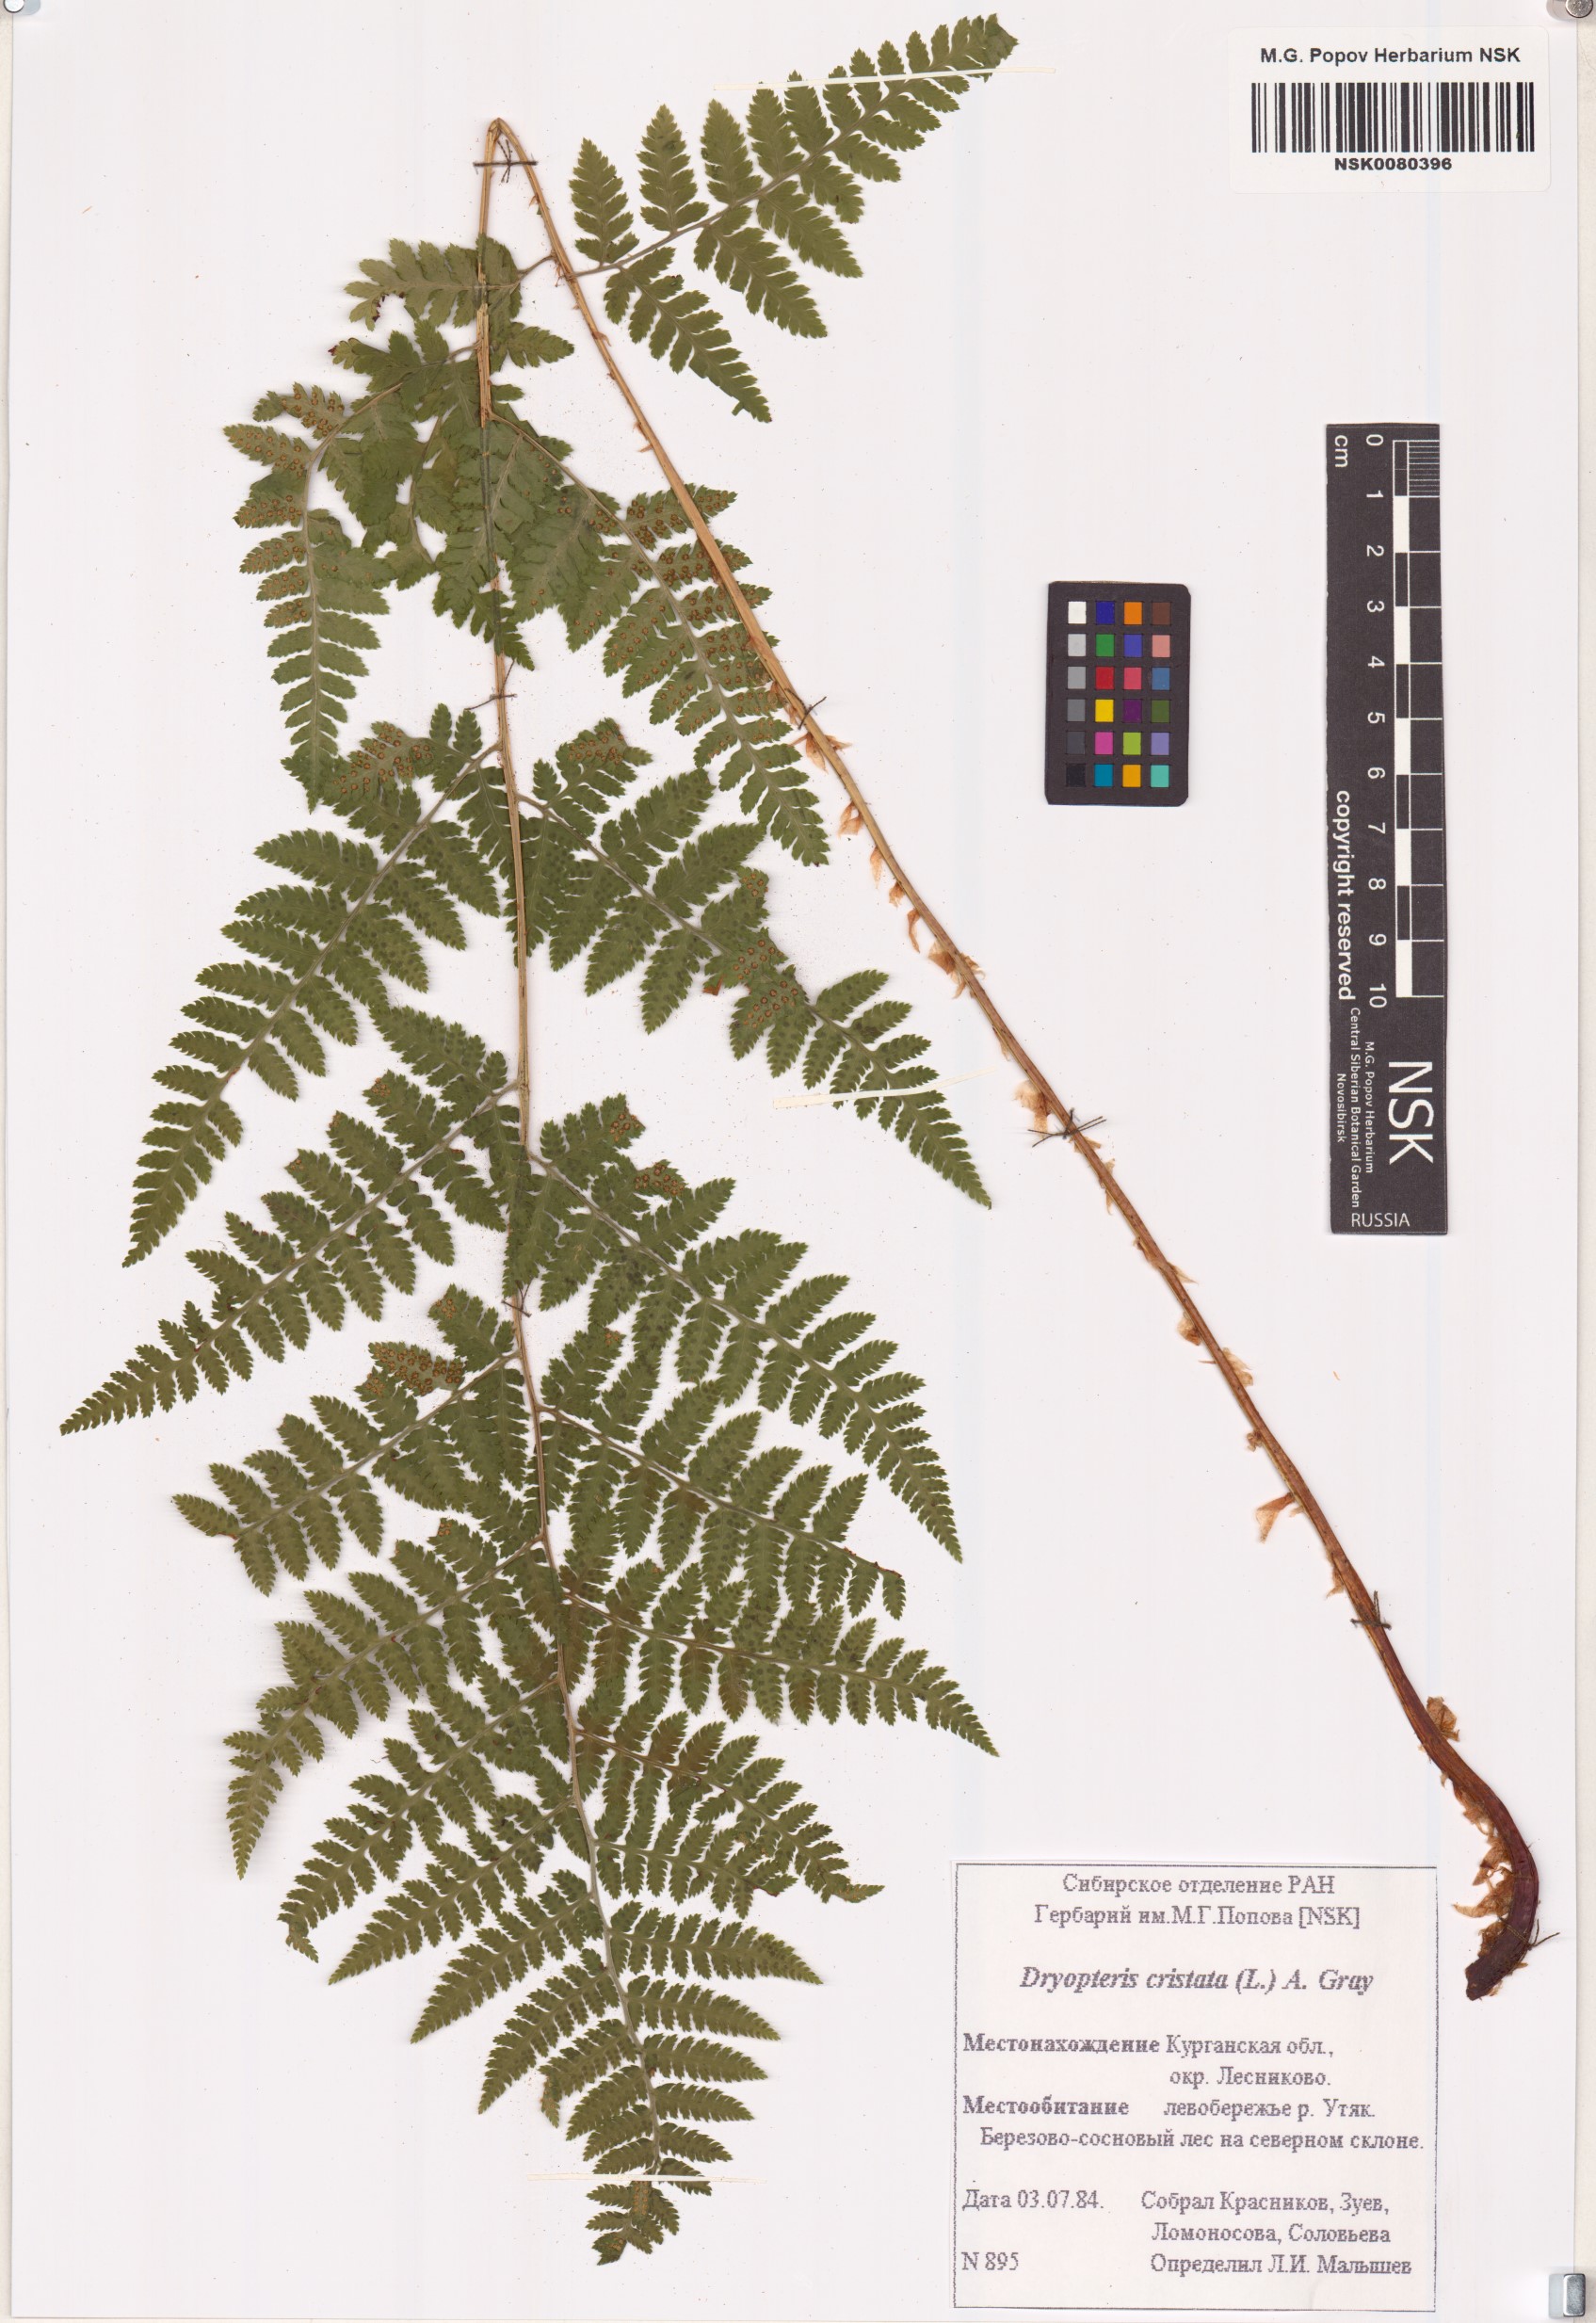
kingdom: Plantae
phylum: Tracheophyta
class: Polypodiopsida
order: Polypodiales
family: Dryopteridaceae
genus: Dryopteris
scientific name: Dryopteris cristata
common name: Crested wood fern
